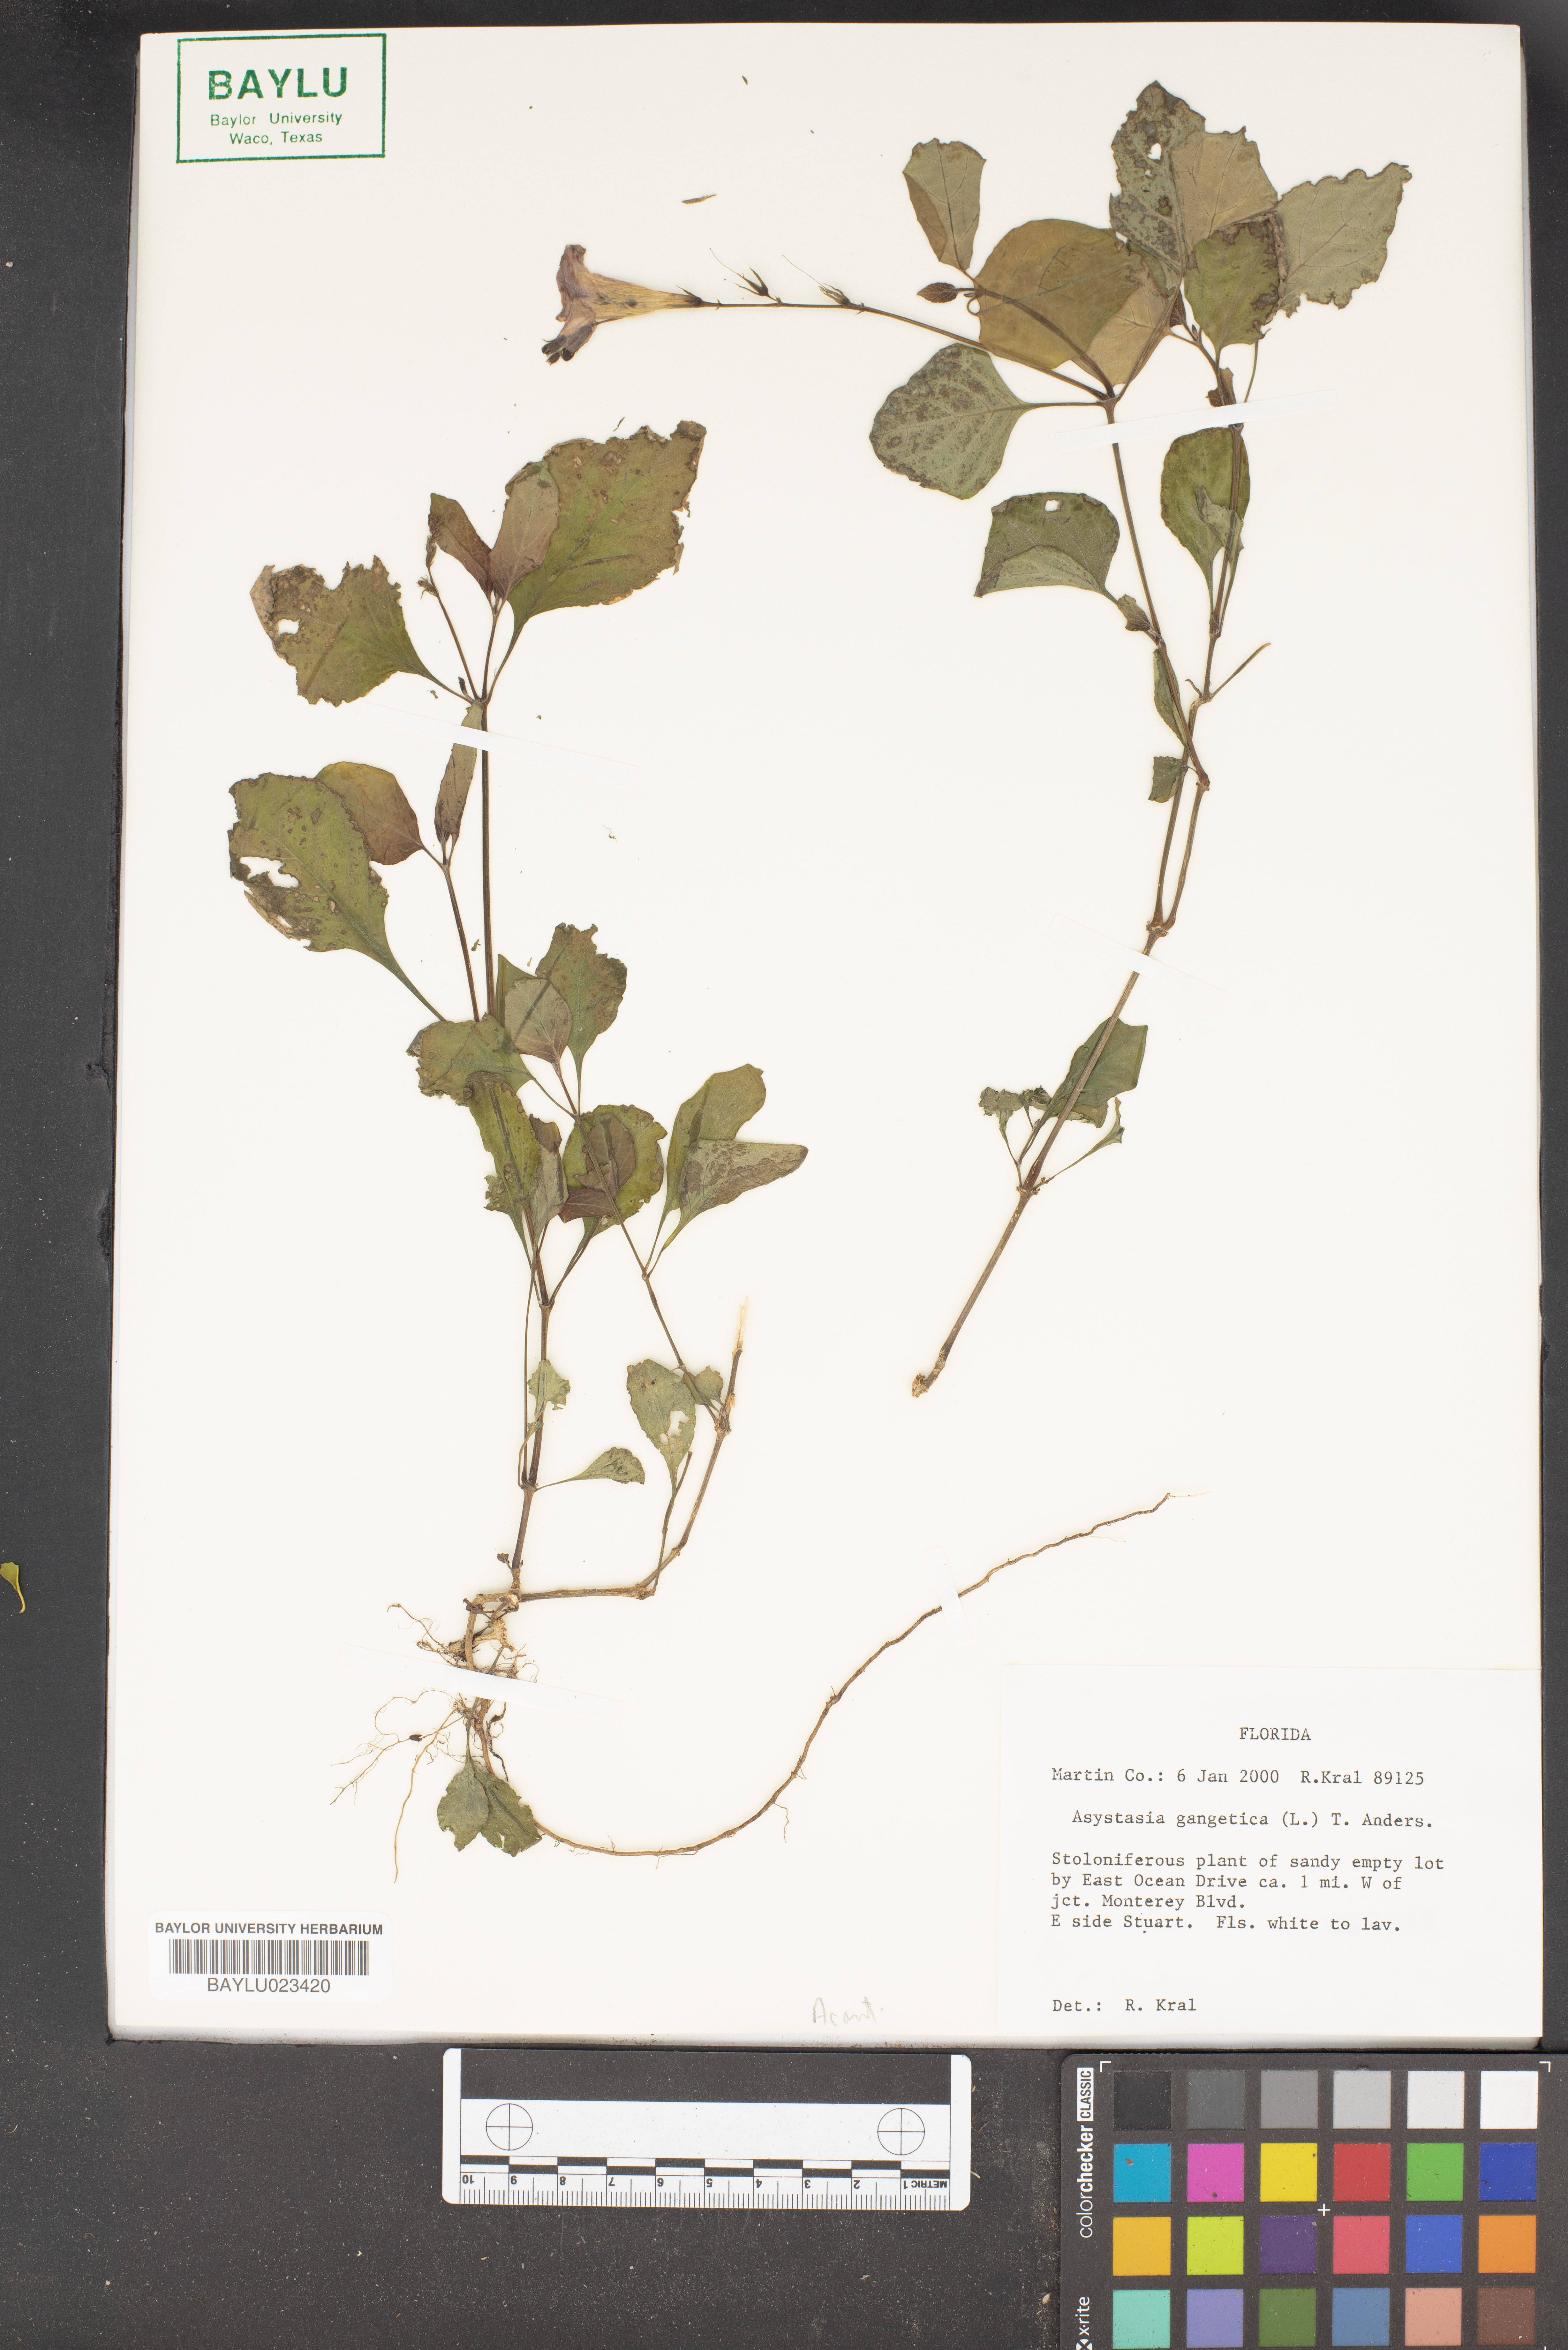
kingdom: Plantae
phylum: Tracheophyta
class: Magnoliopsida
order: Lamiales
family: Acanthaceae
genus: Asystasia
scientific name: Asystasia gangetica
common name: Chinese violet
